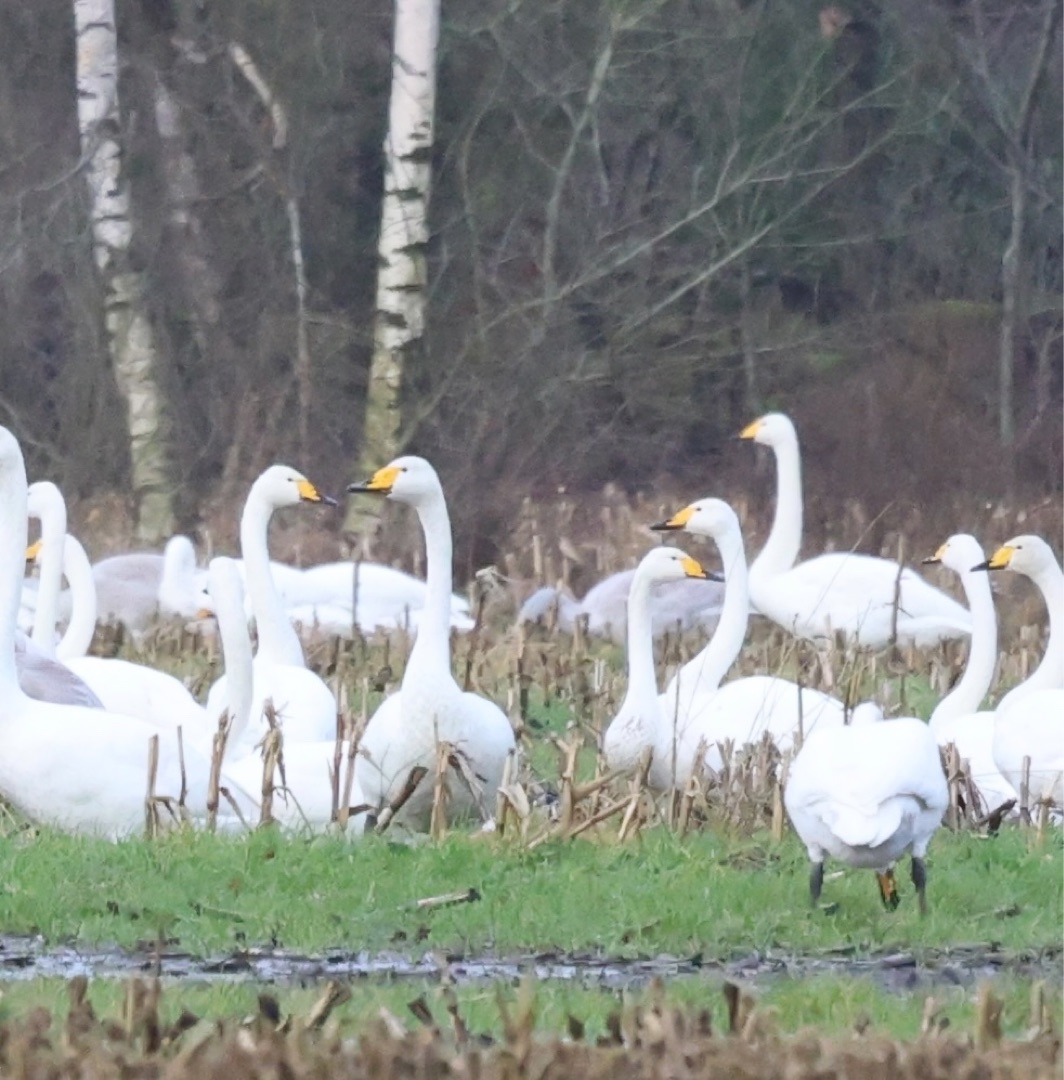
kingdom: Animalia
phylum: Chordata
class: Aves
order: Anseriformes
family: Anatidae
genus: Cygnus
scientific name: Cygnus cygnus
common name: Sangsvane
